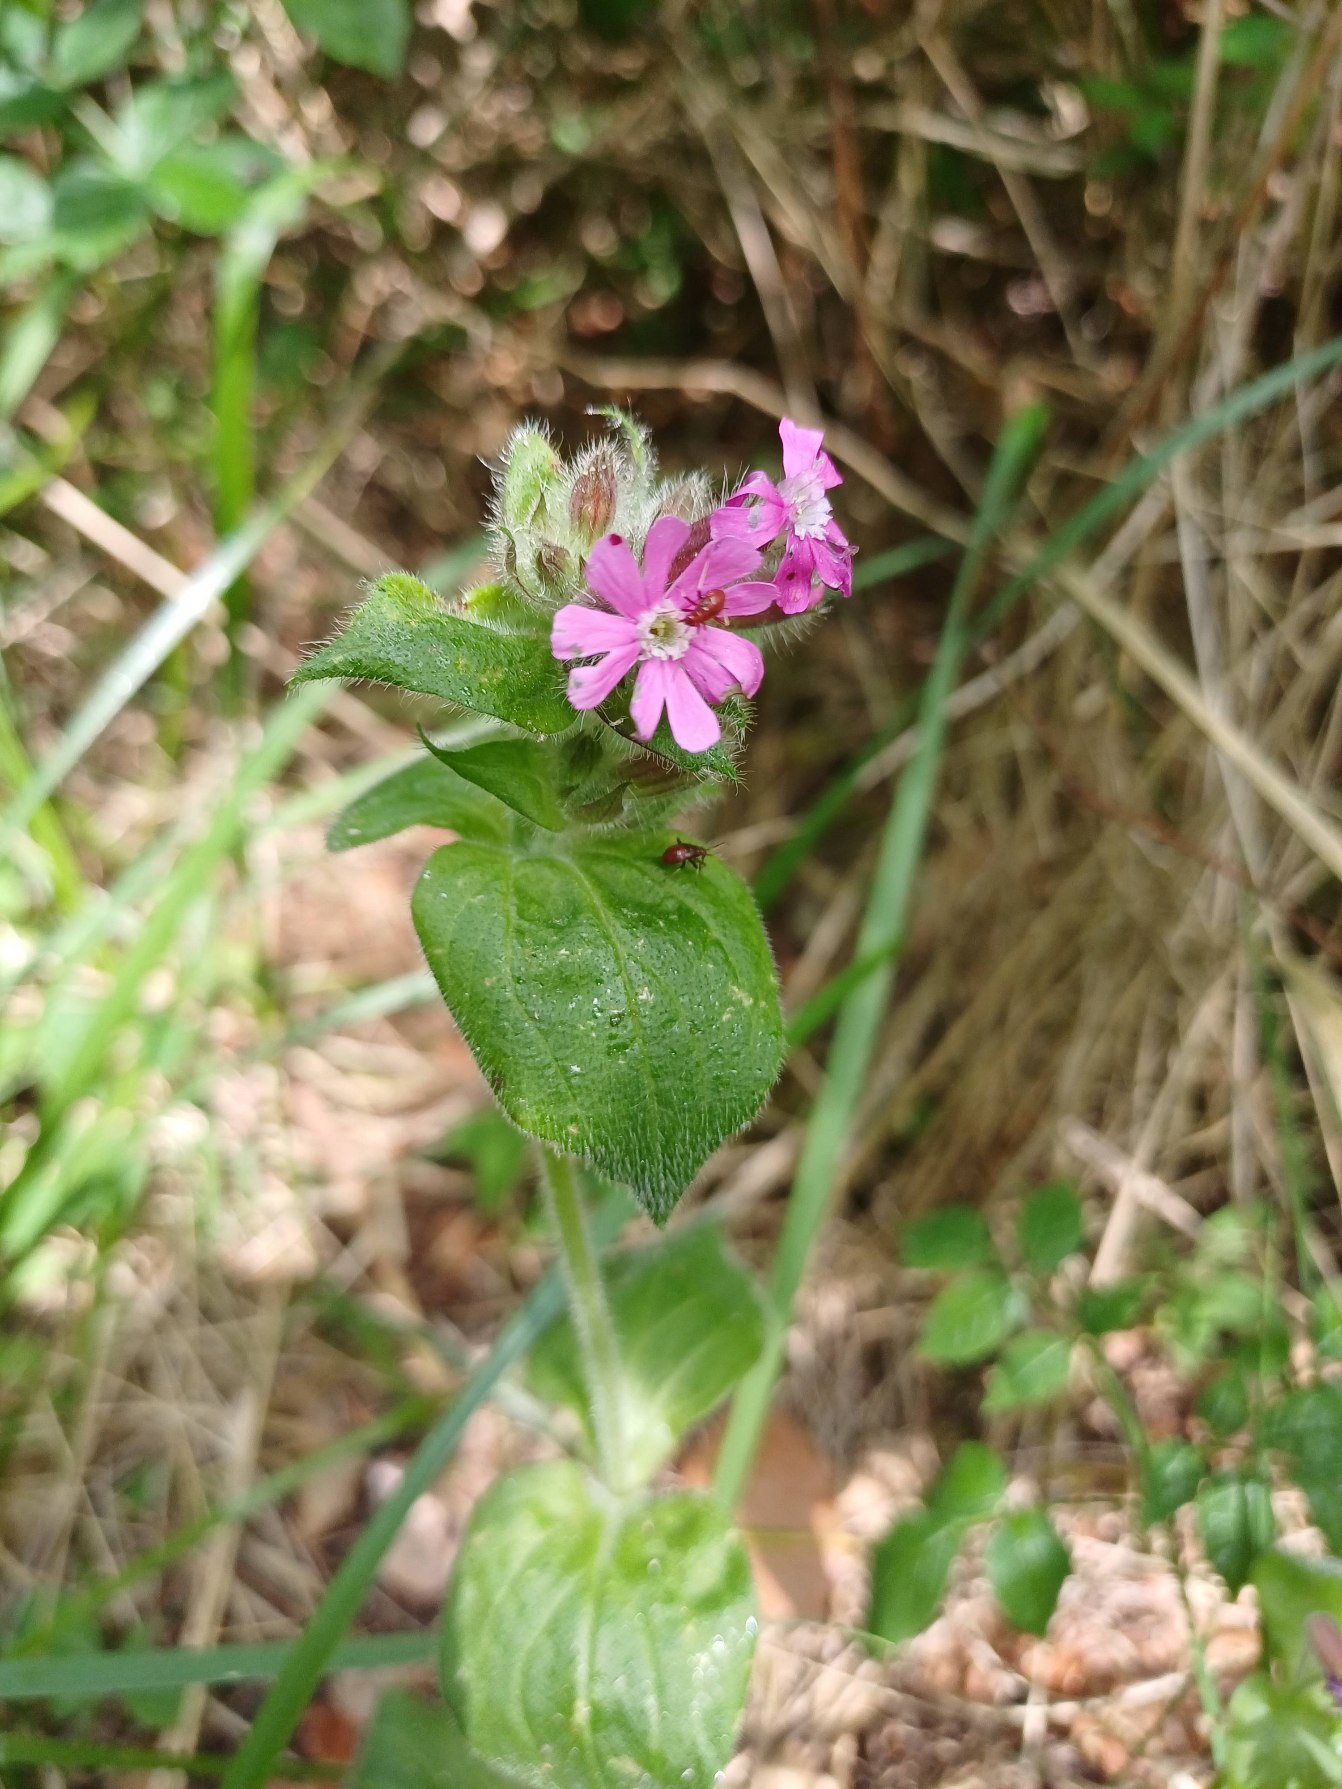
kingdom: Plantae
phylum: Tracheophyta
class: Magnoliopsida
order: Caryophyllales
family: Caryophyllaceae
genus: Silene
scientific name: Silene dioica
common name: Dagpragtstjerne
